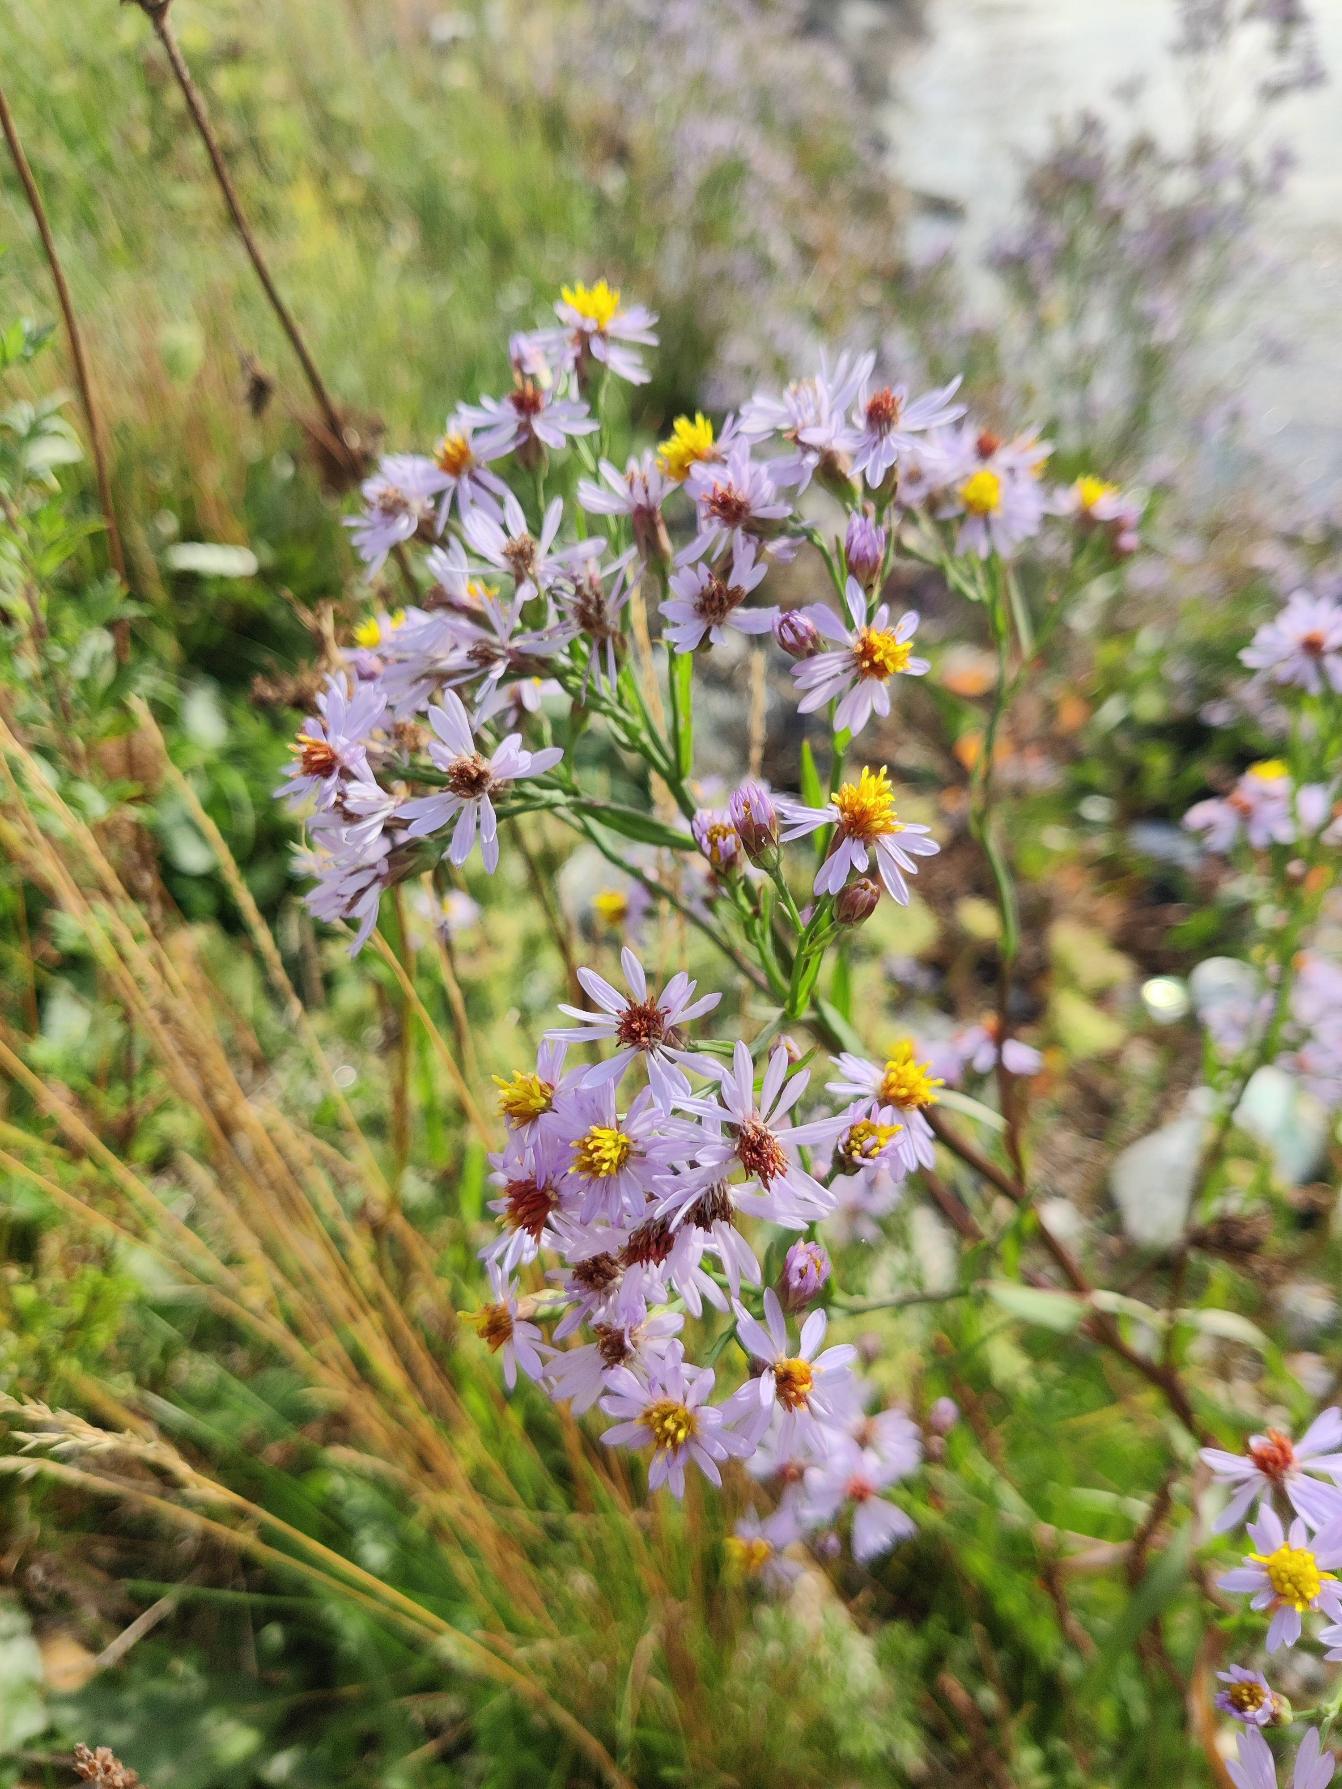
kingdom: Plantae
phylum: Tracheophyta
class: Magnoliopsida
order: Asterales
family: Asteraceae
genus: Tripolium
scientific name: Tripolium pannonicum
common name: Strandasters
